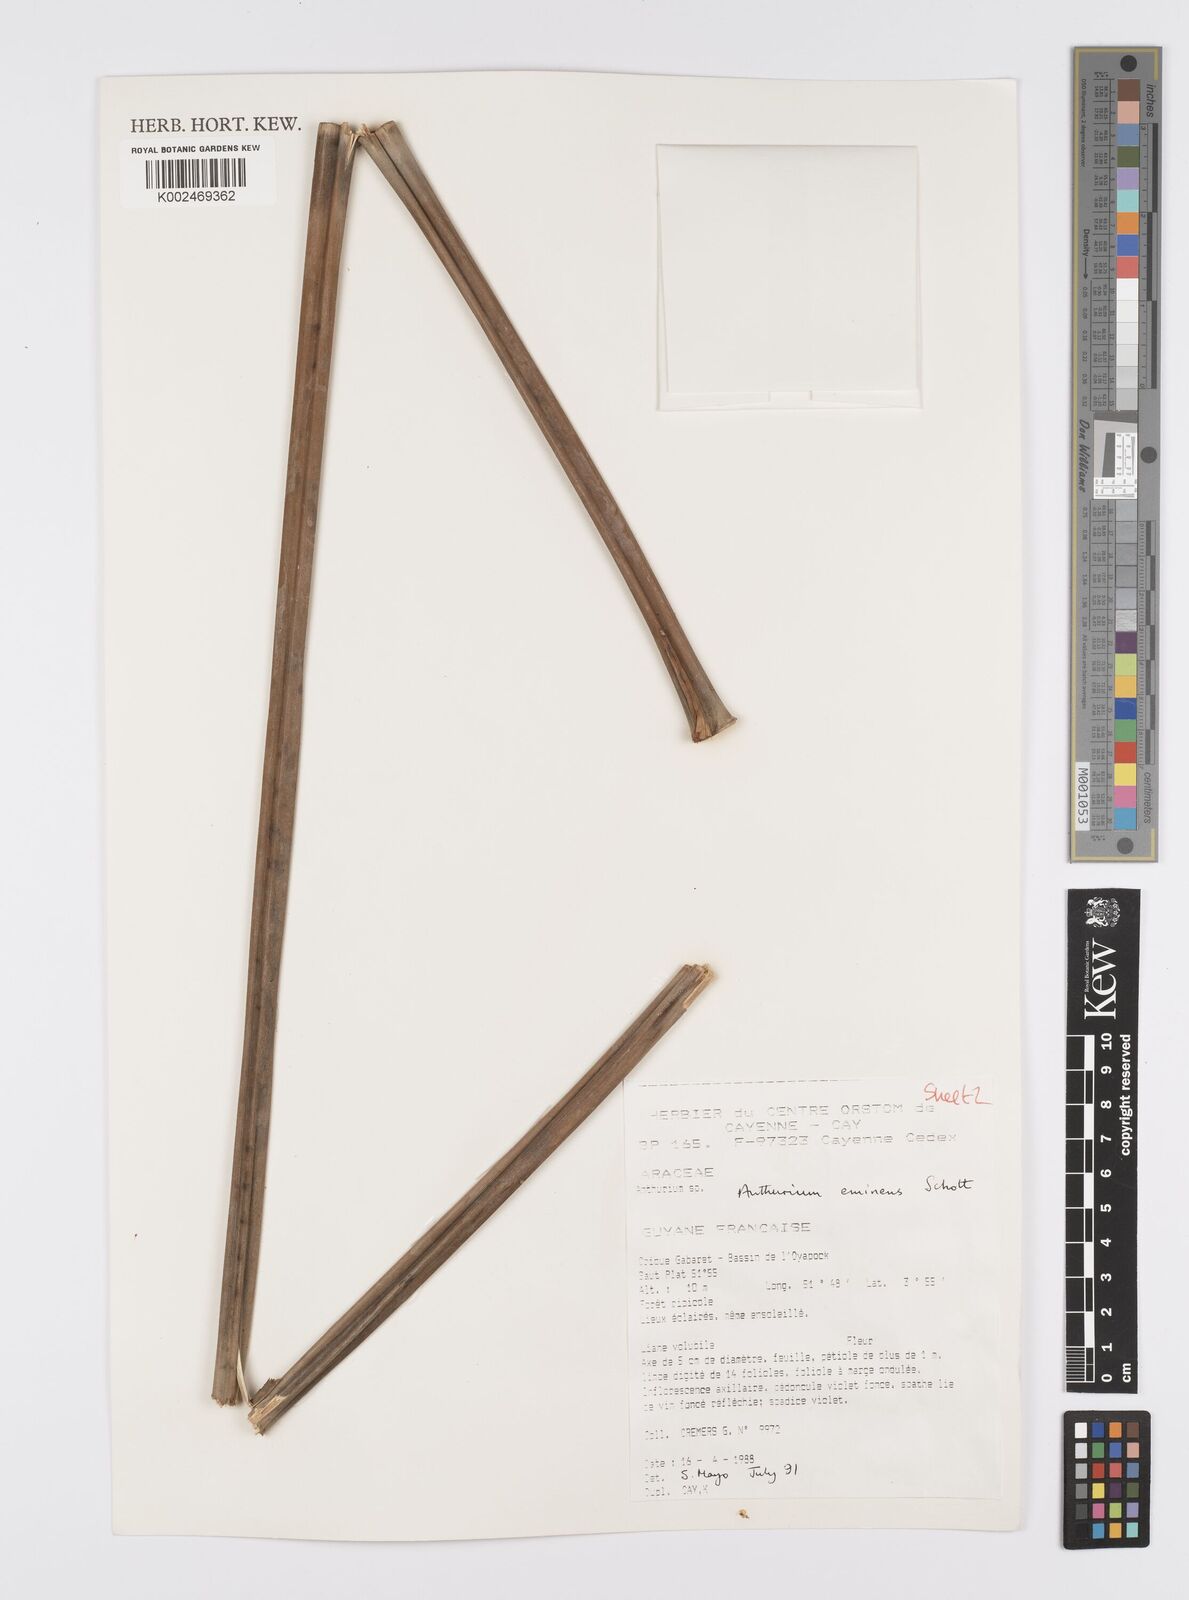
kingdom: Plantae
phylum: Tracheophyta
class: Liliopsida
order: Alismatales
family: Araceae
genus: Anthurium
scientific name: Anthurium eminens
